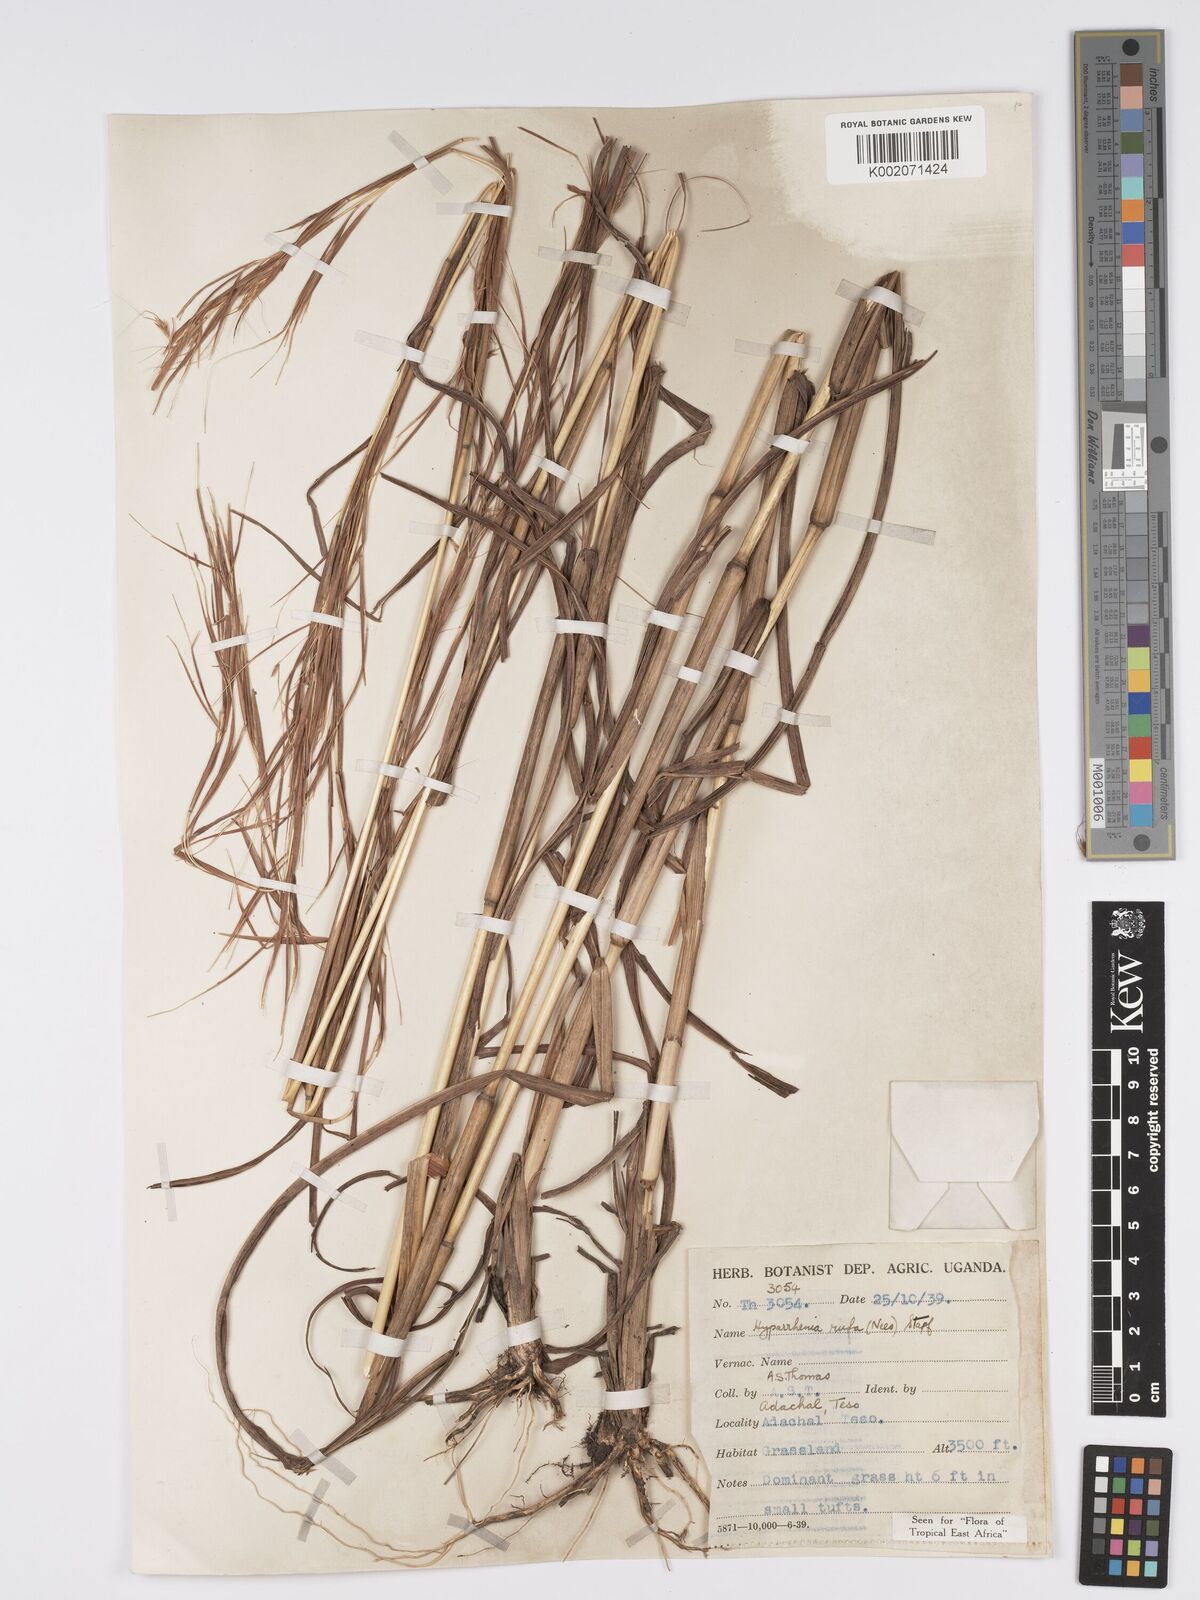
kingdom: Plantae
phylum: Tracheophyta
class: Liliopsida
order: Poales
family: Poaceae
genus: Hyparrhenia
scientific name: Hyparrhenia rufa
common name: Jaraguagrass
